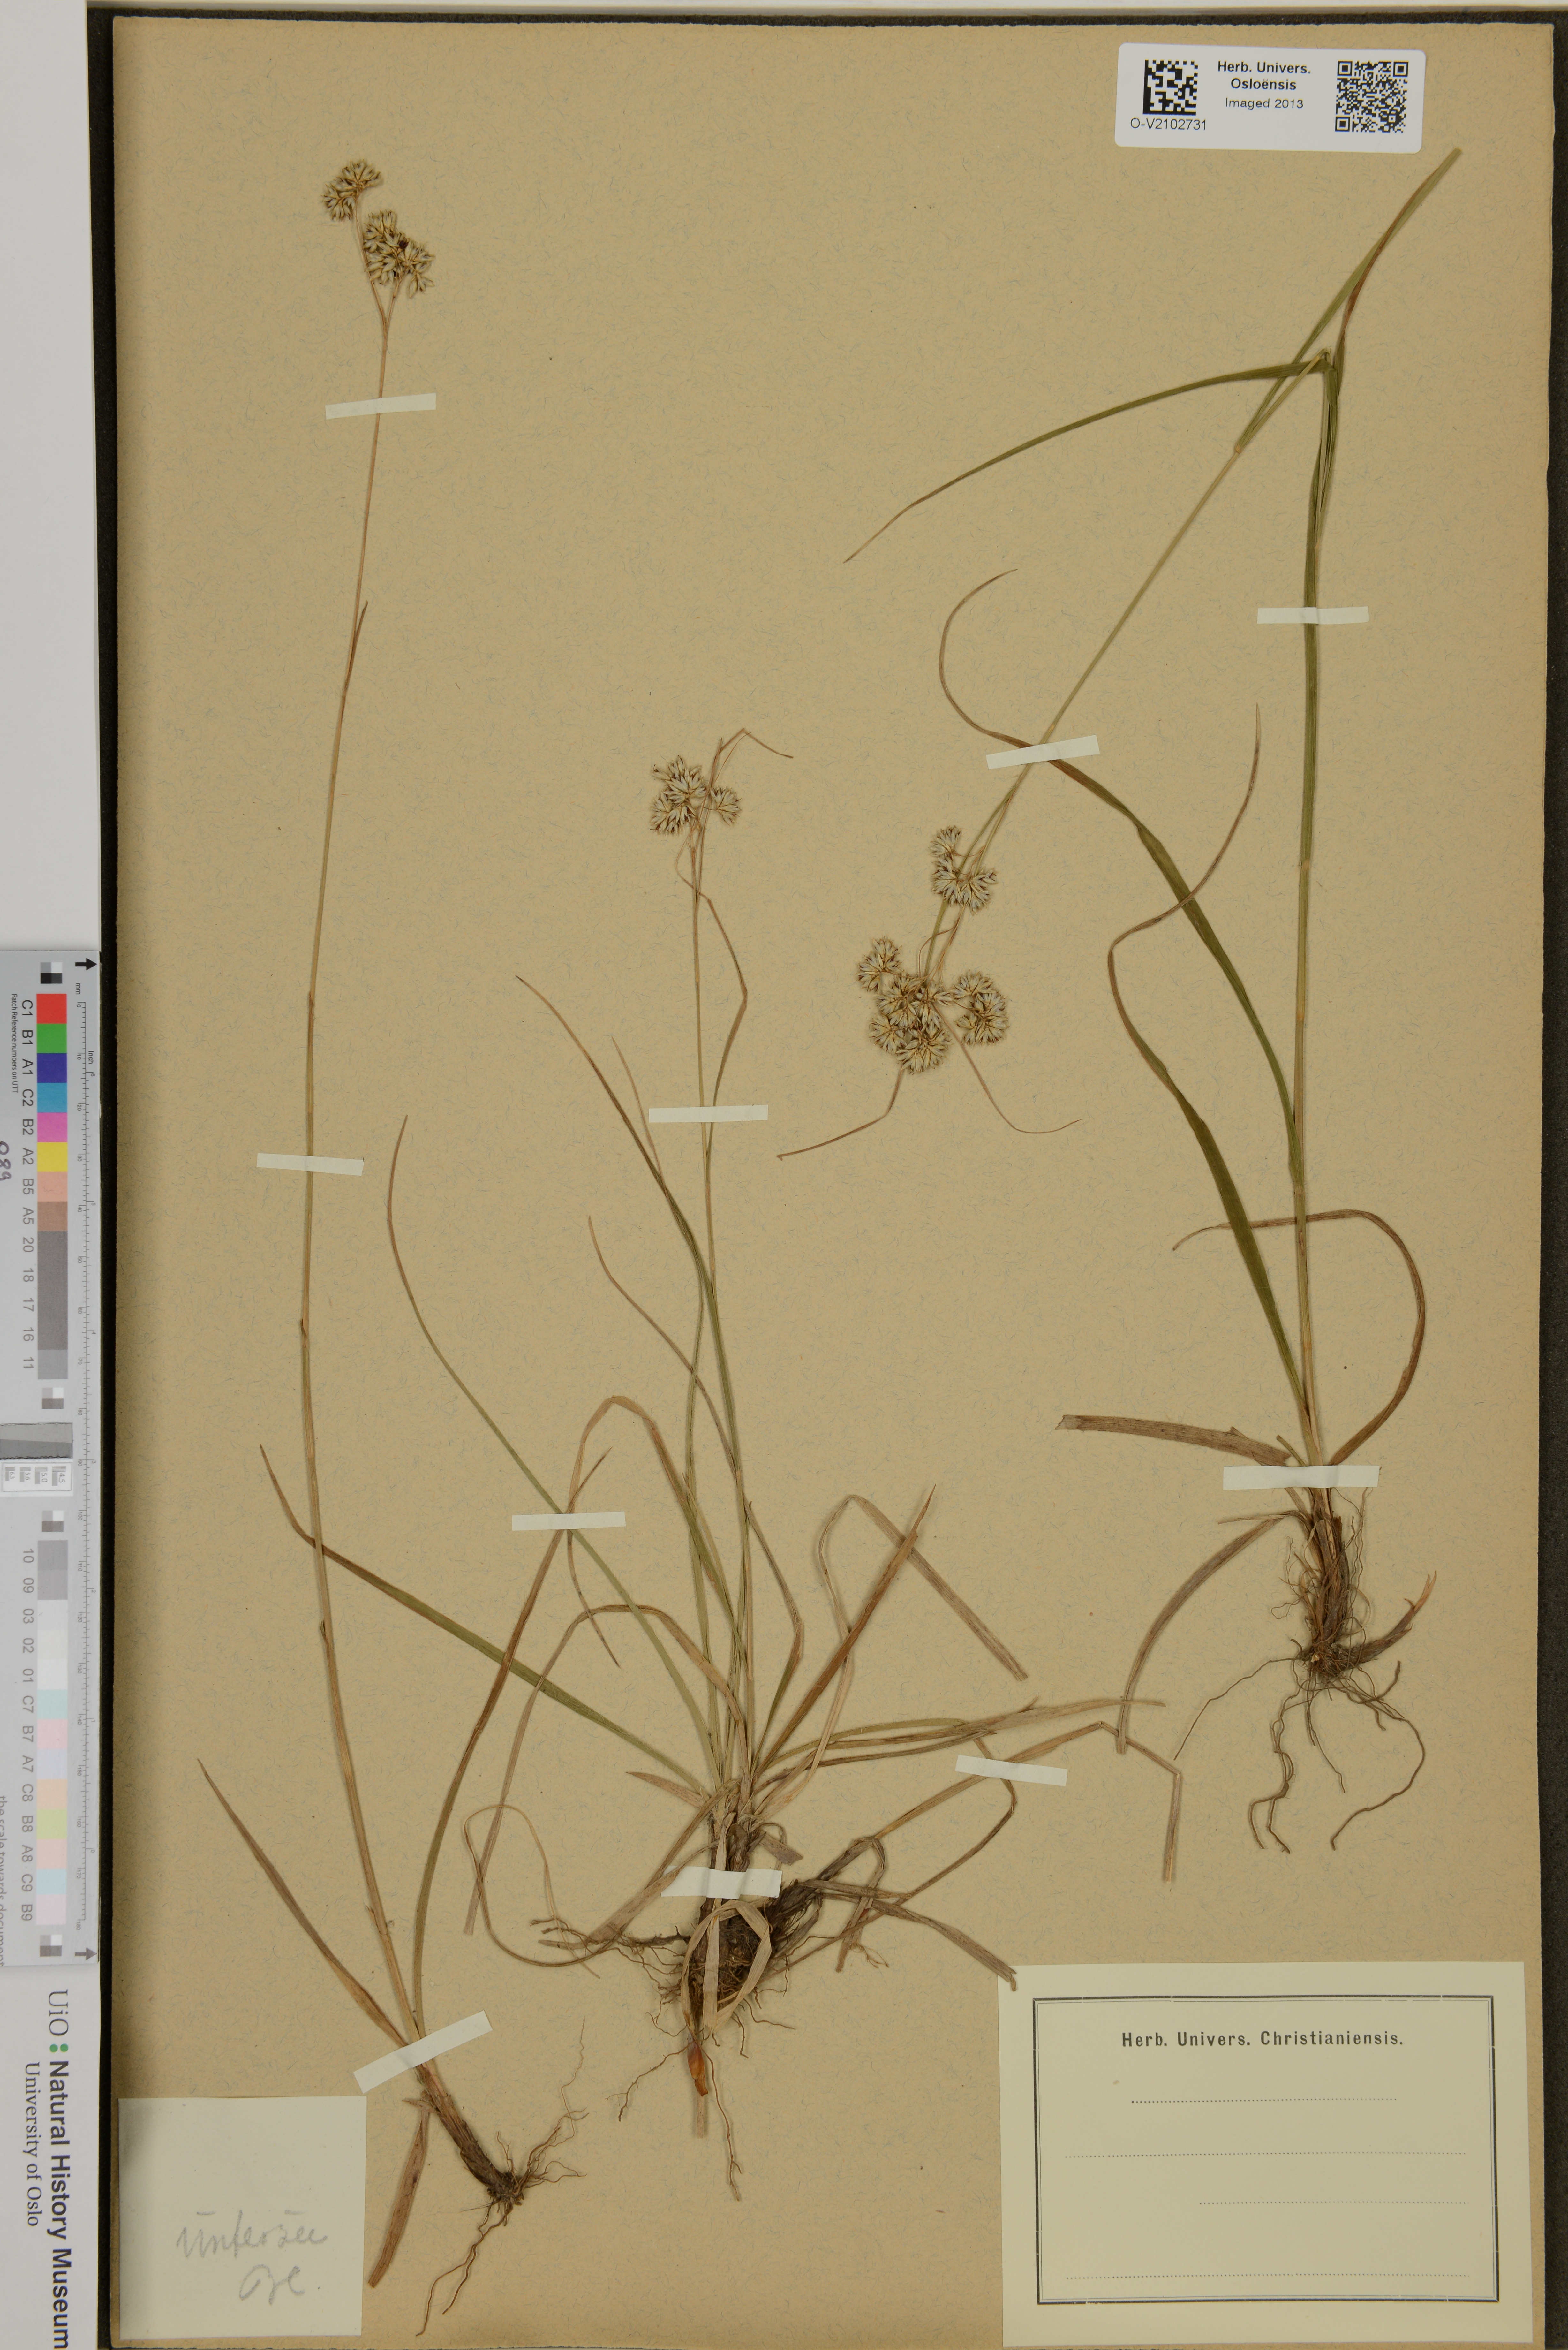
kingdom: Plantae
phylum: Tracheophyta
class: Liliopsida
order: Poales
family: Juncaceae
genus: Luzula
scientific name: Luzula
